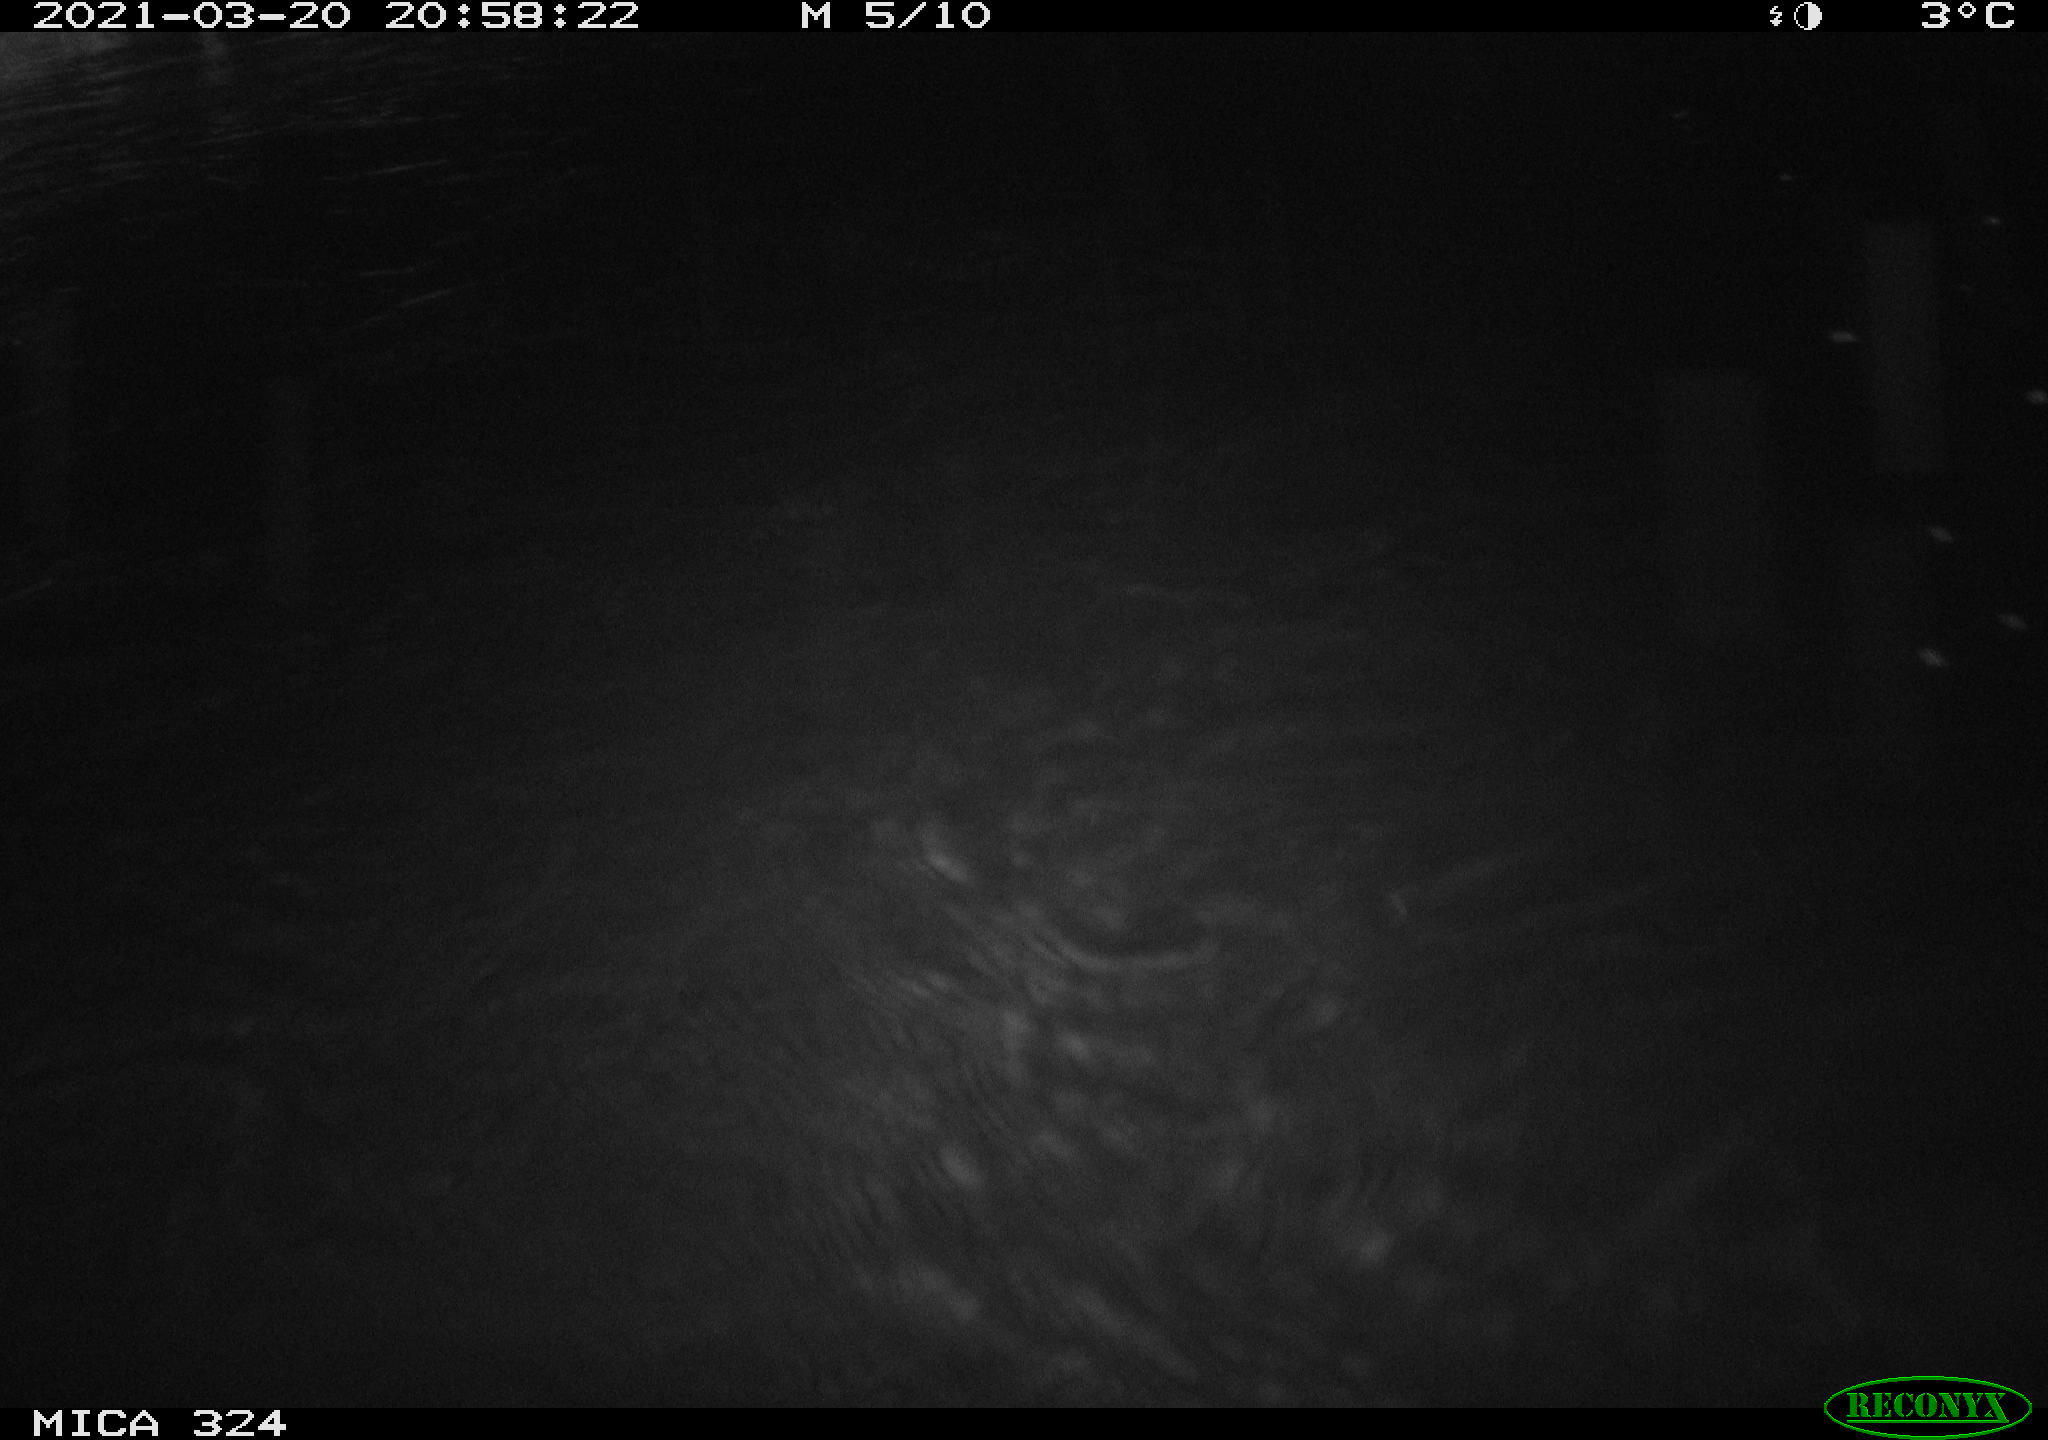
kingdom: Animalia
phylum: Chordata
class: Mammalia
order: Rodentia
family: Cricetidae
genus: Ondatra
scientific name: Ondatra zibethicus
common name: Muskrat
